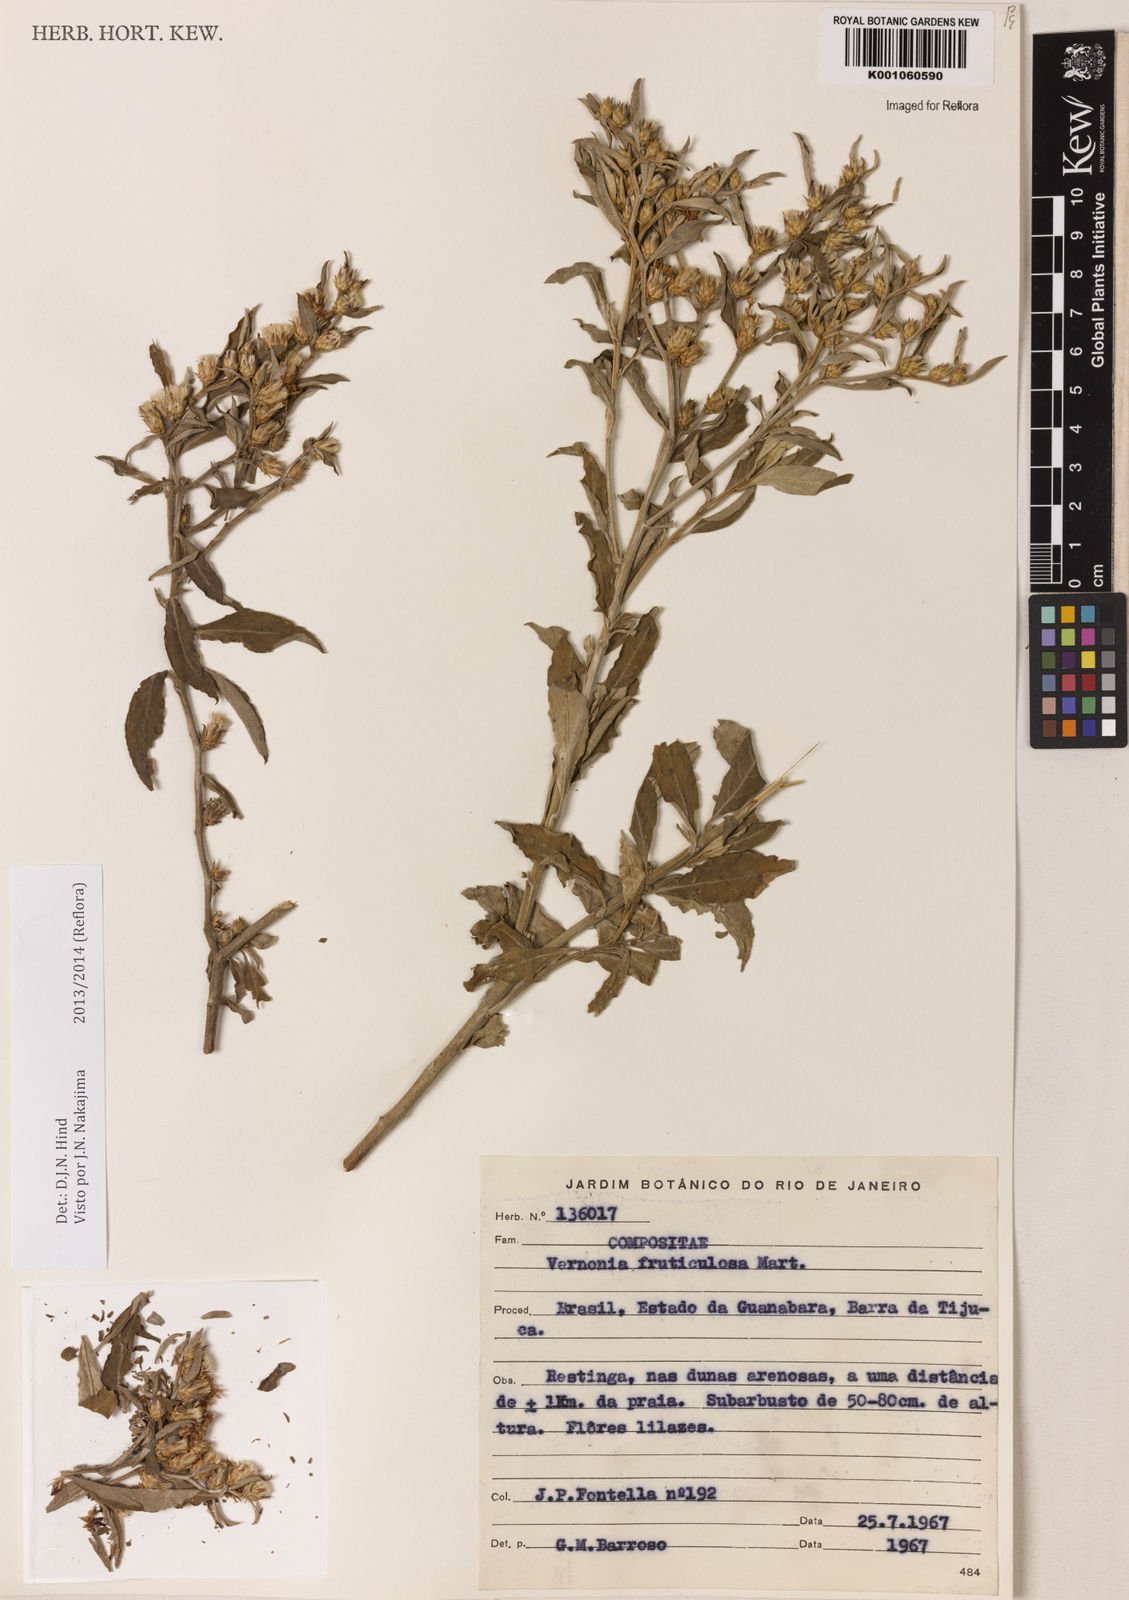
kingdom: Plantae
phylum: Tracheophyta
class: Magnoliopsida
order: Asterales
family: Asteraceae
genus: Lepidaploa
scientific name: Lepidaploa rufogrisea
